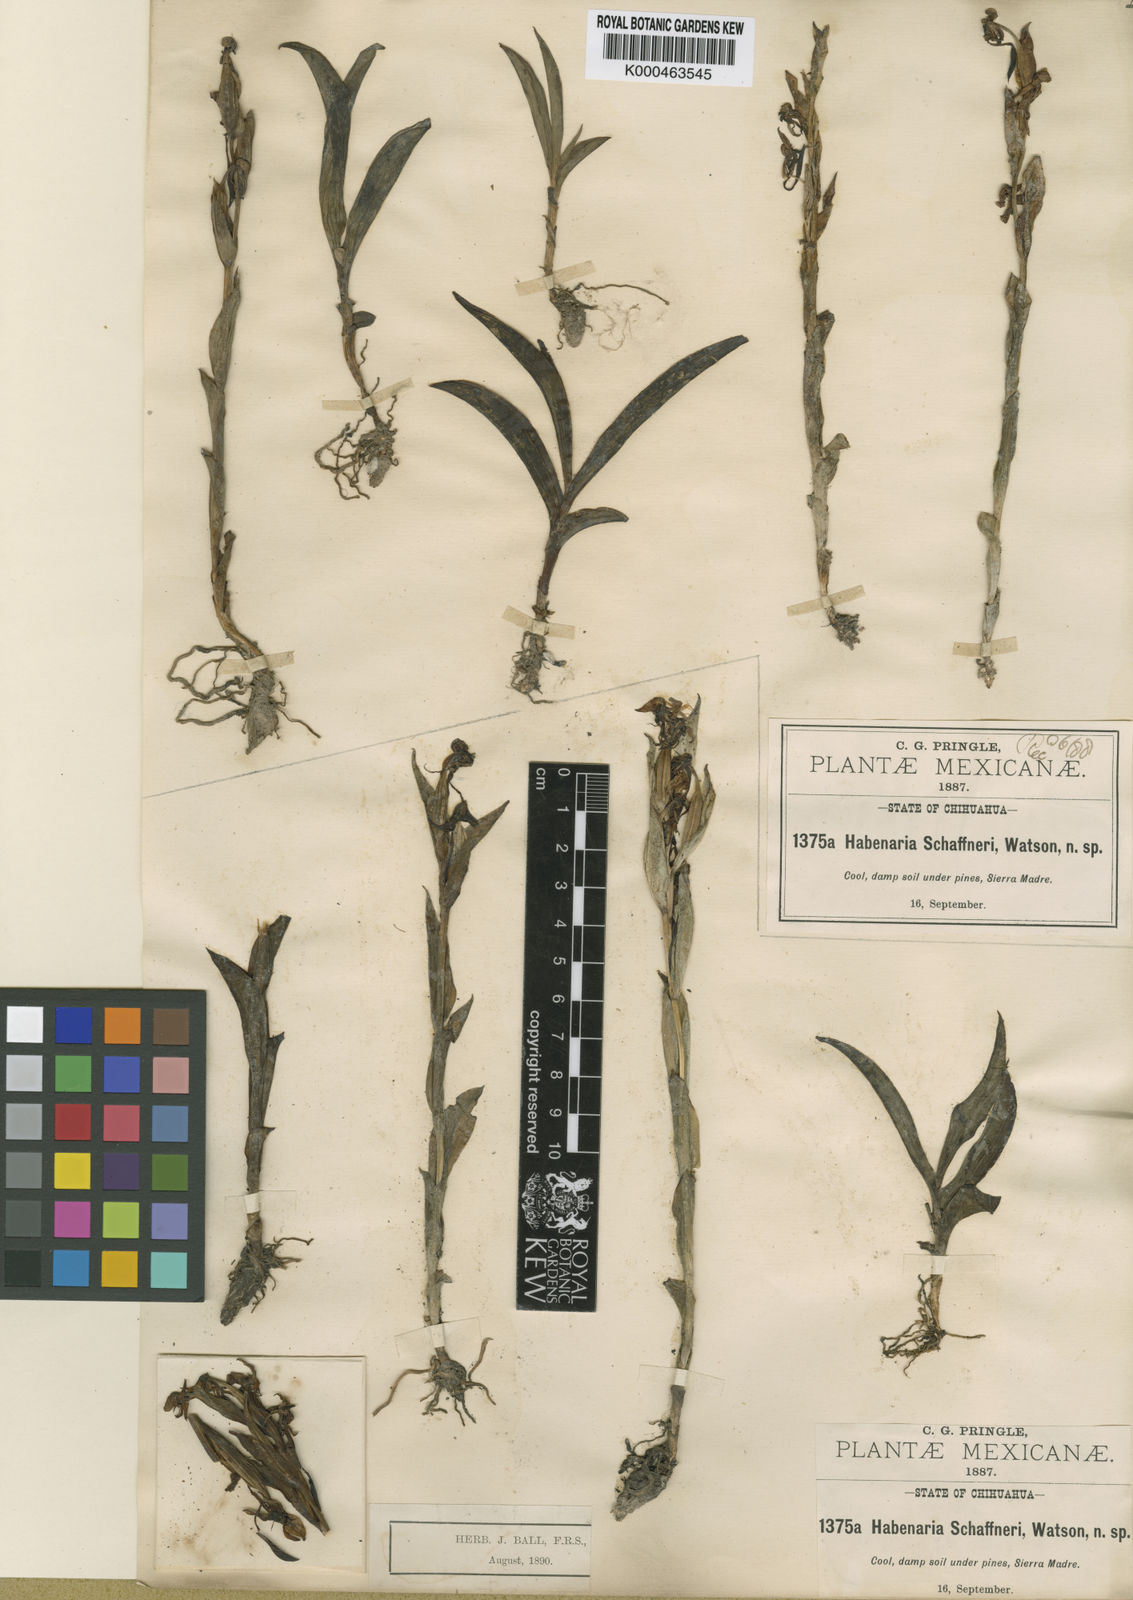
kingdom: Plantae
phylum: Tracheophyta
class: Liliopsida
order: Asparagales
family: Orchidaceae
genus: Habenaria
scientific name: Habenaria schaffneri
